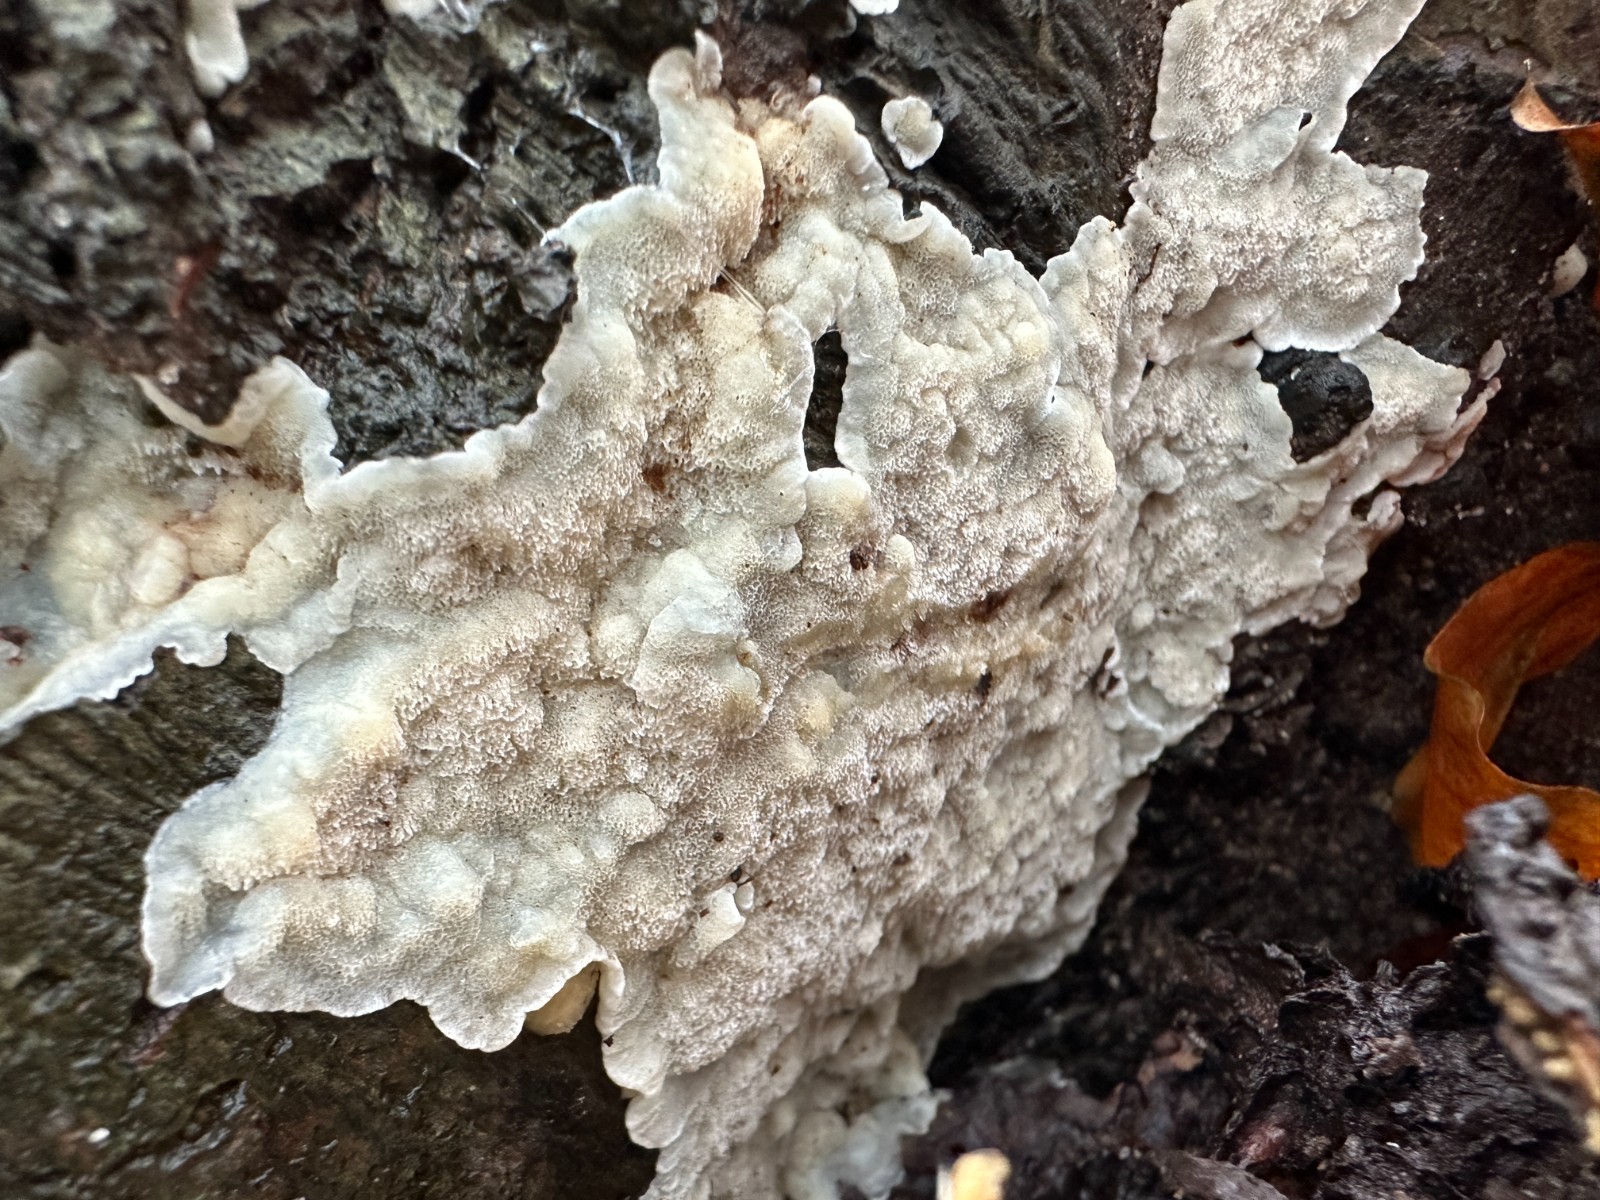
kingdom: Fungi
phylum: Basidiomycota
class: Agaricomycetes
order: Polyporales
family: Meruliaceae
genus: Physisporinus
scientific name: Physisporinus vitreus
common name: mastesvamp
